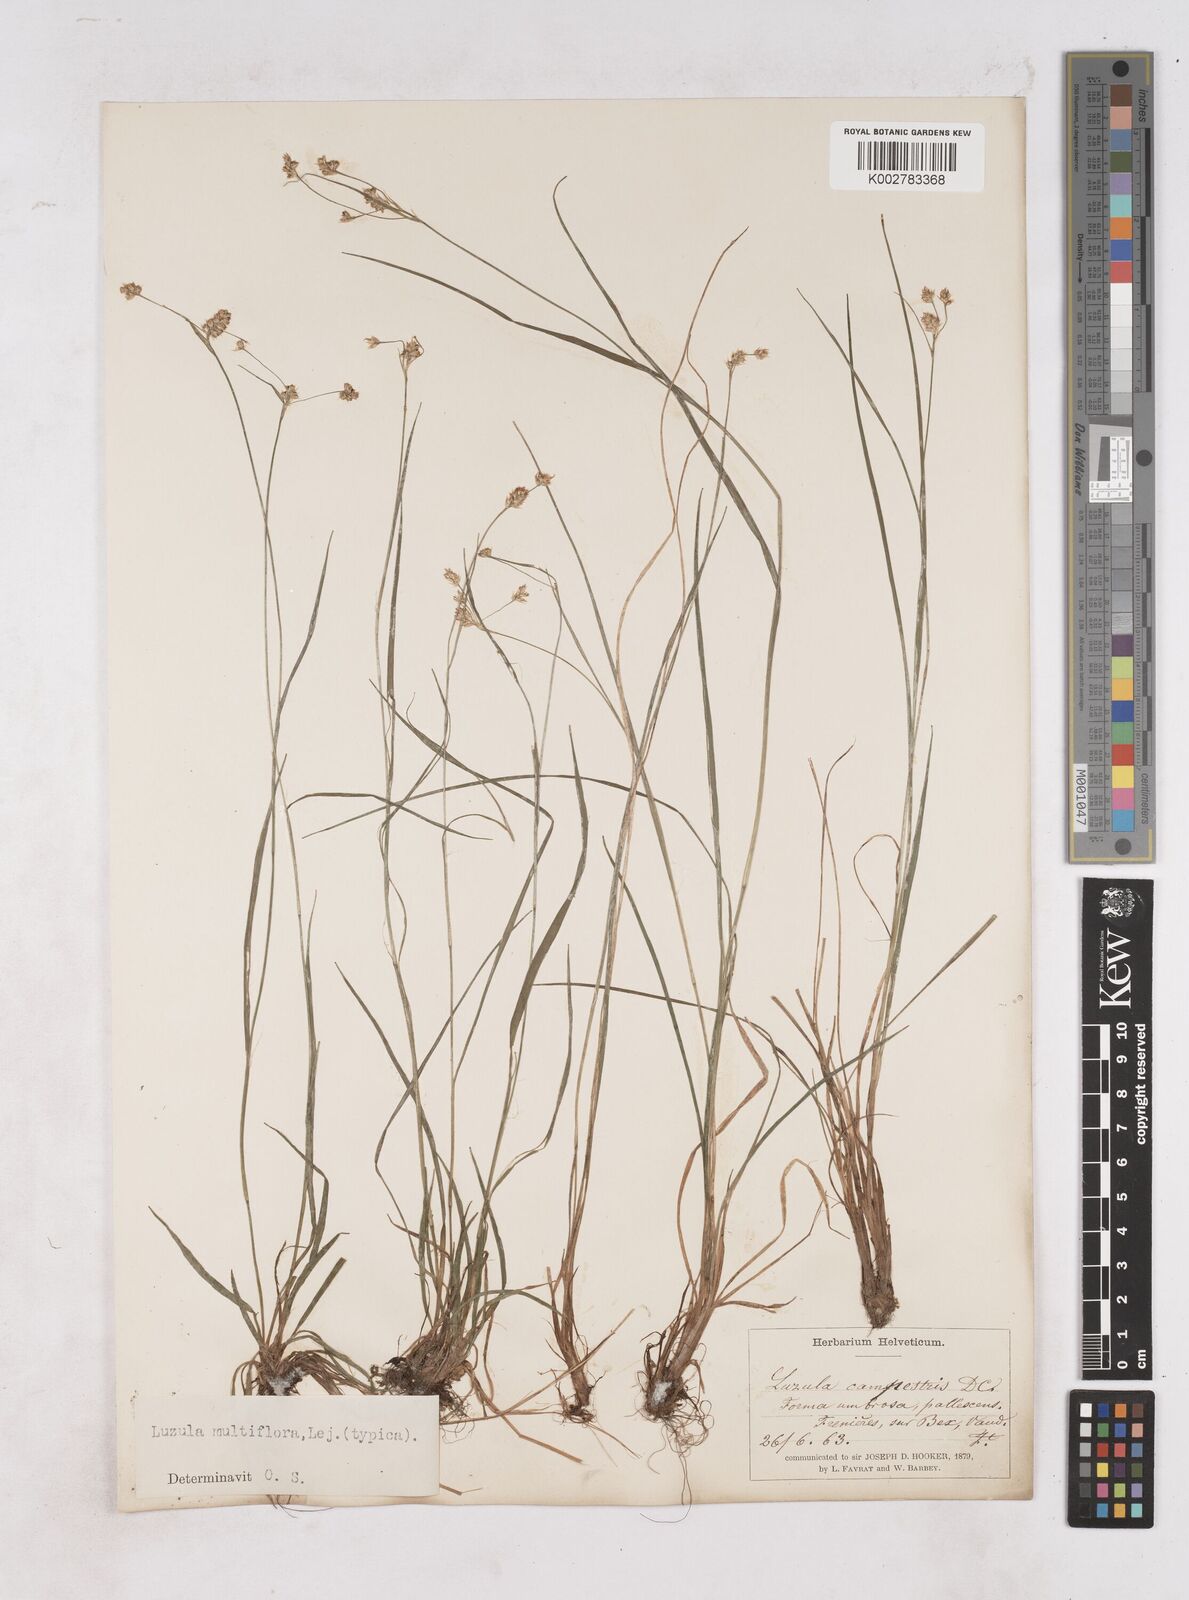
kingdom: Plantae
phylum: Tracheophyta
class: Liliopsida
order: Poales
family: Juncaceae
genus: Luzula
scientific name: Luzula multiflora
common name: Heath wood-rush
